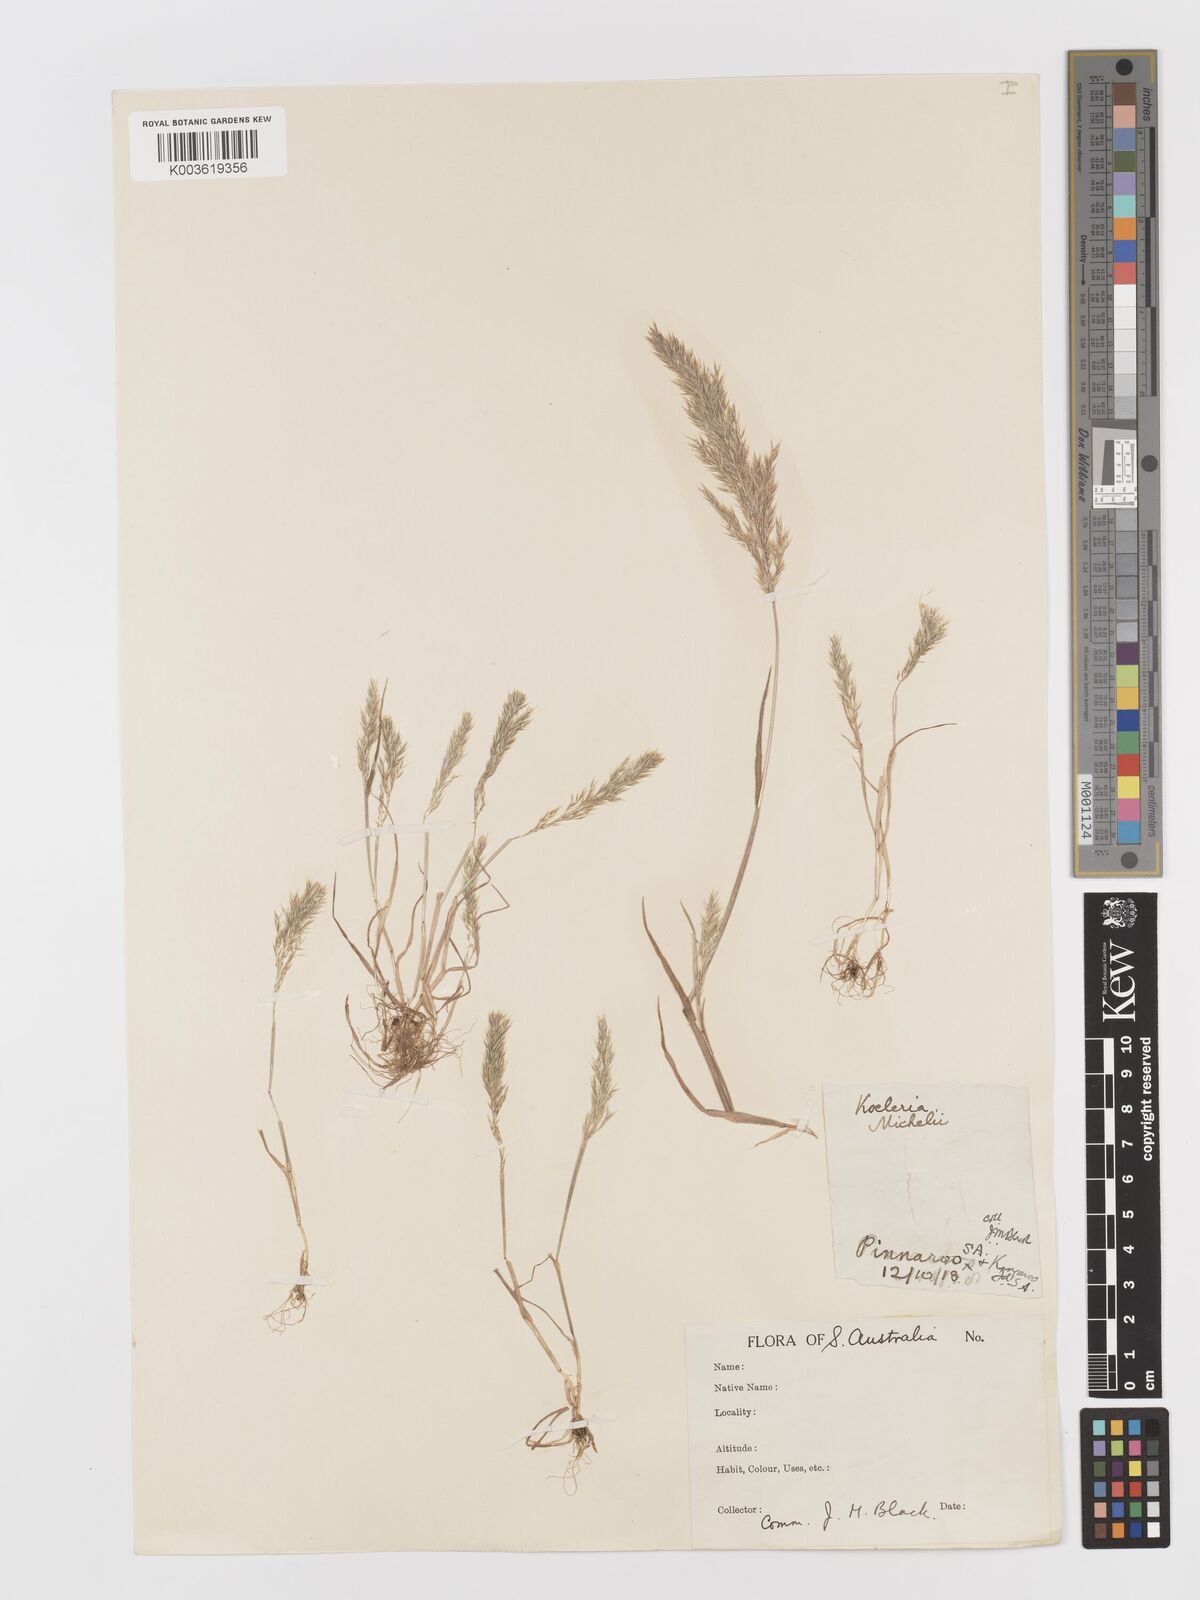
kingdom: Plantae
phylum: Tracheophyta
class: Liliopsida
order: Poales
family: Poaceae
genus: Rostraria
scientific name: Rostraria
